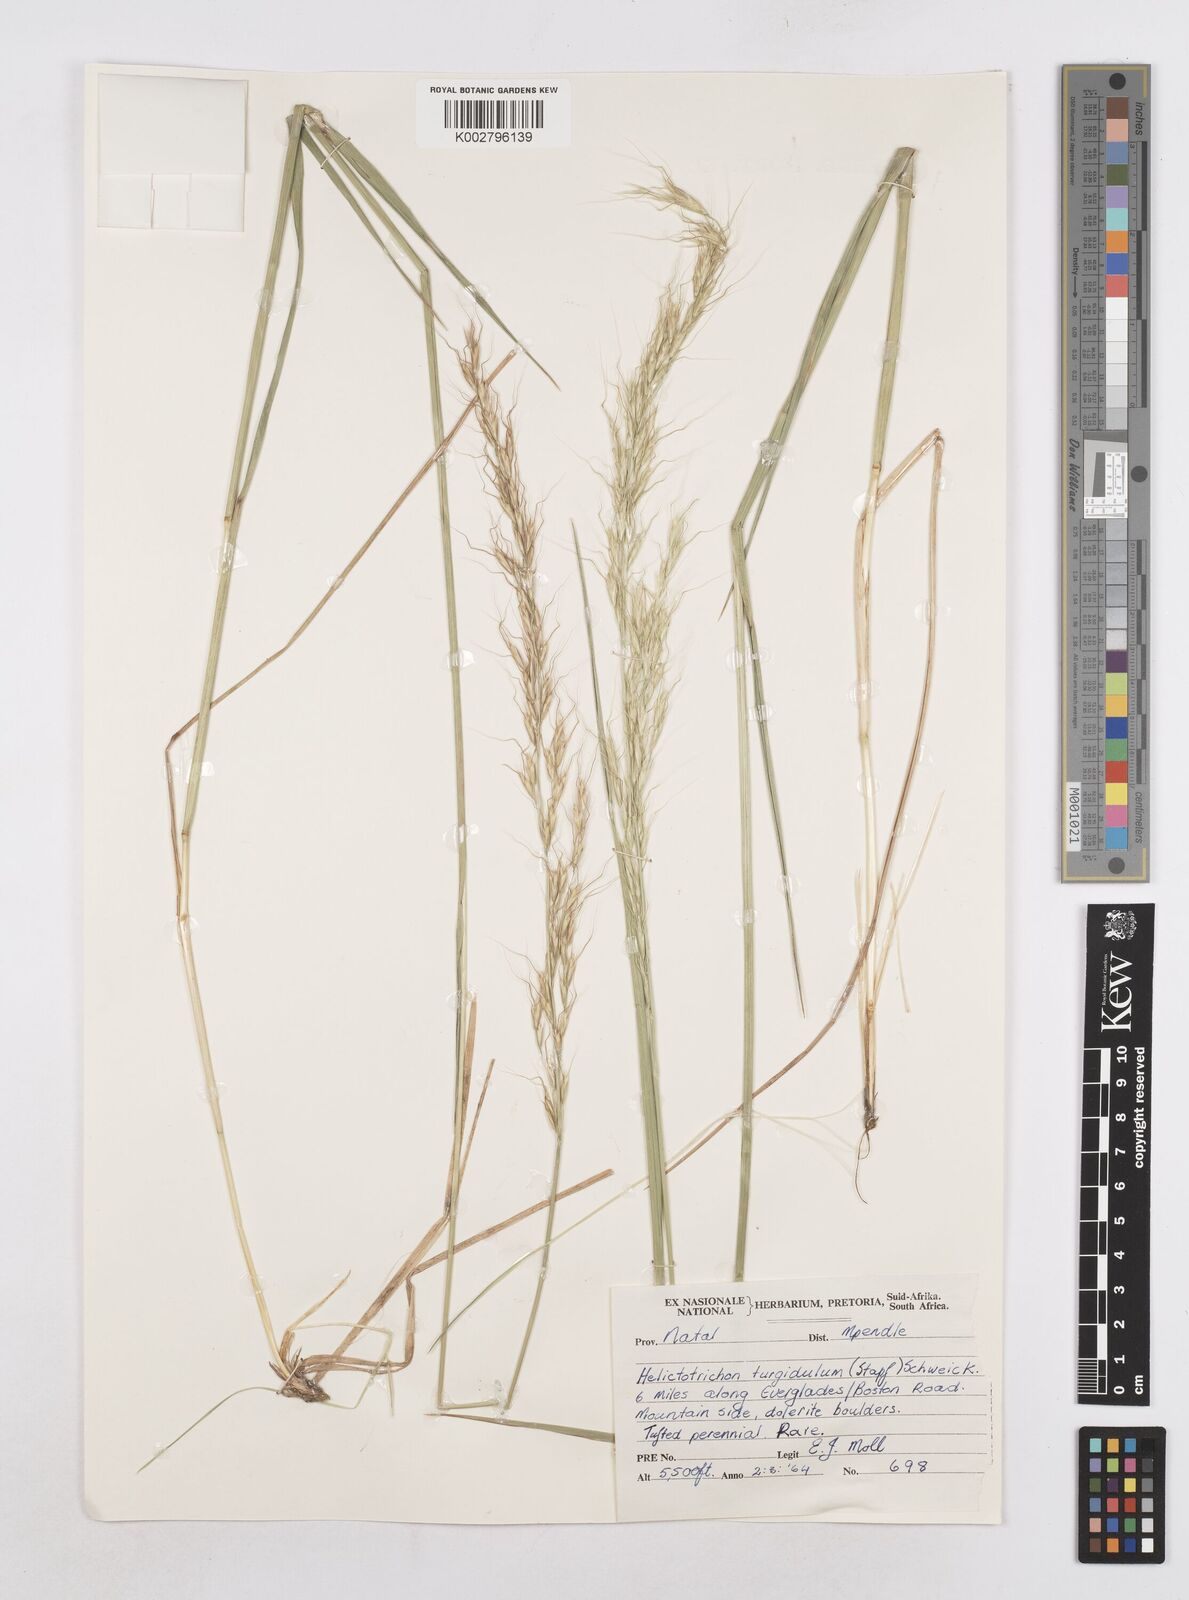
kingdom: Plantae
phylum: Tracheophyta
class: Liliopsida
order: Poales
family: Poaceae
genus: Trisetopsis
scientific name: Trisetopsis imberbis
